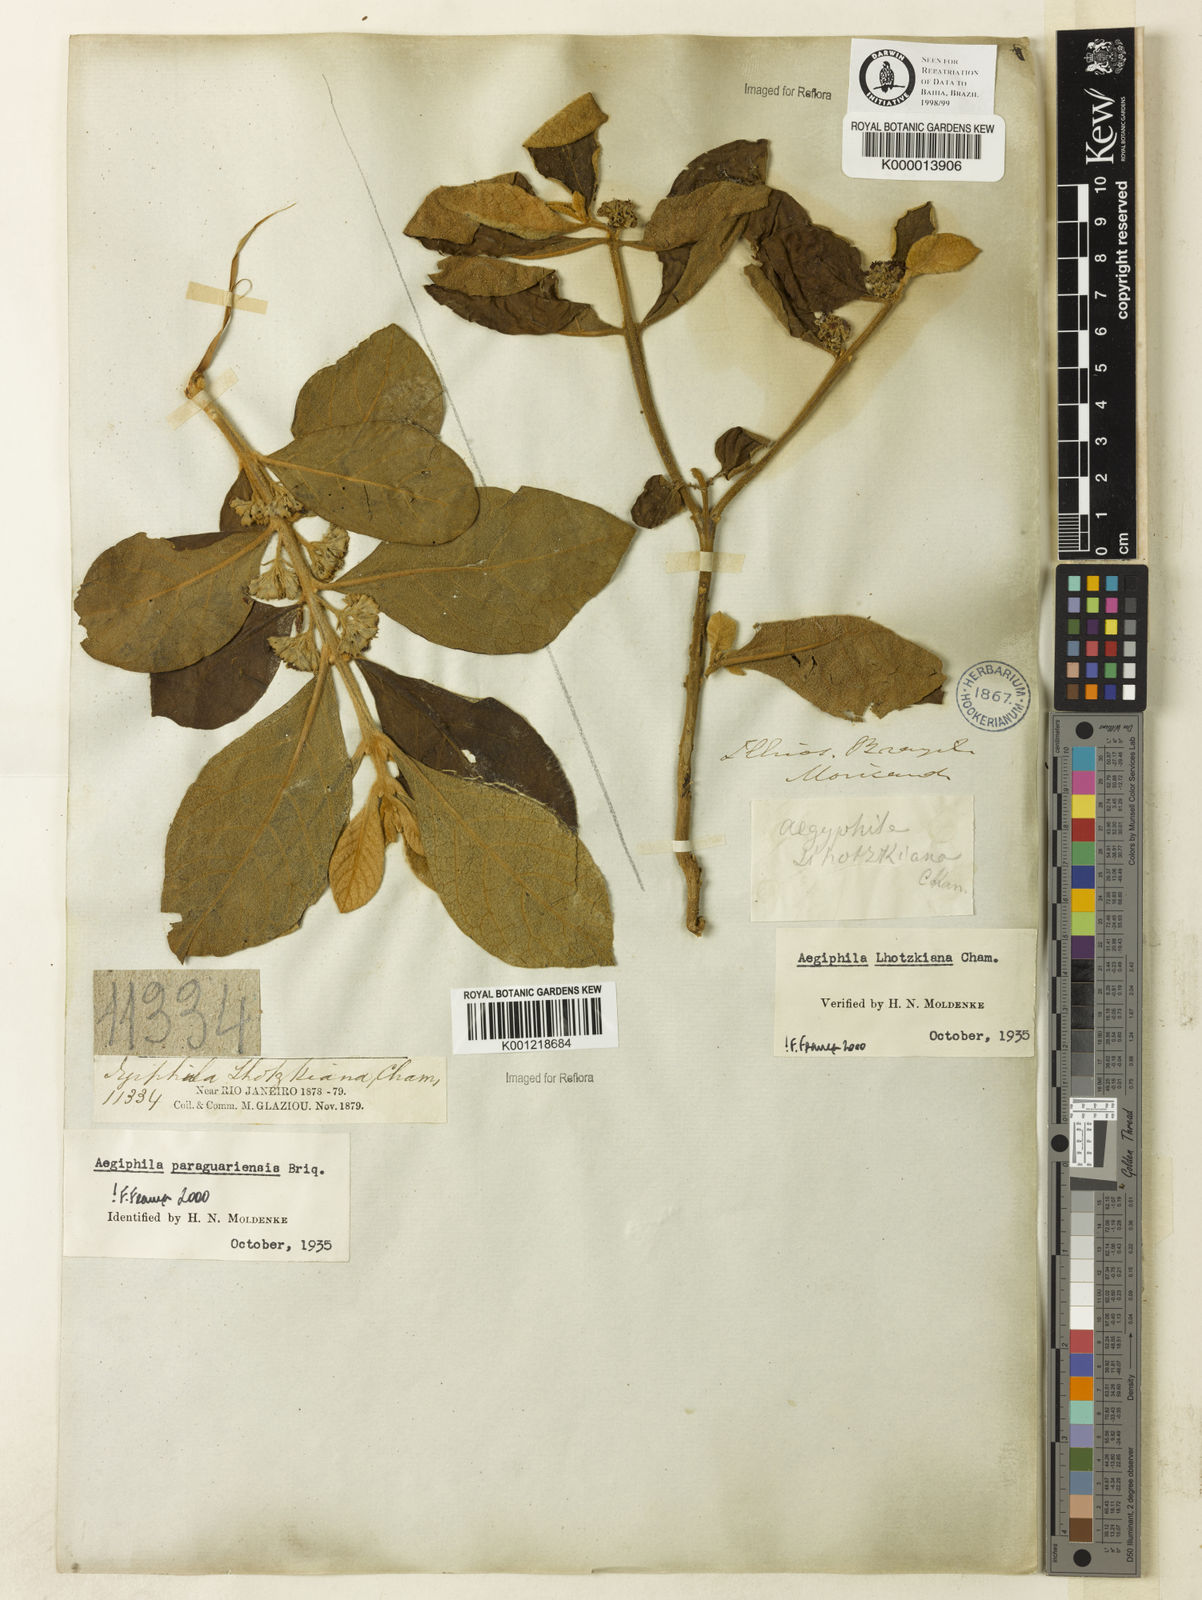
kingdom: Plantae
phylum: Tracheophyta
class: Magnoliopsida
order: Lamiales
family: Lamiaceae
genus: Aegiphila
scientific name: Aegiphila verticillata
